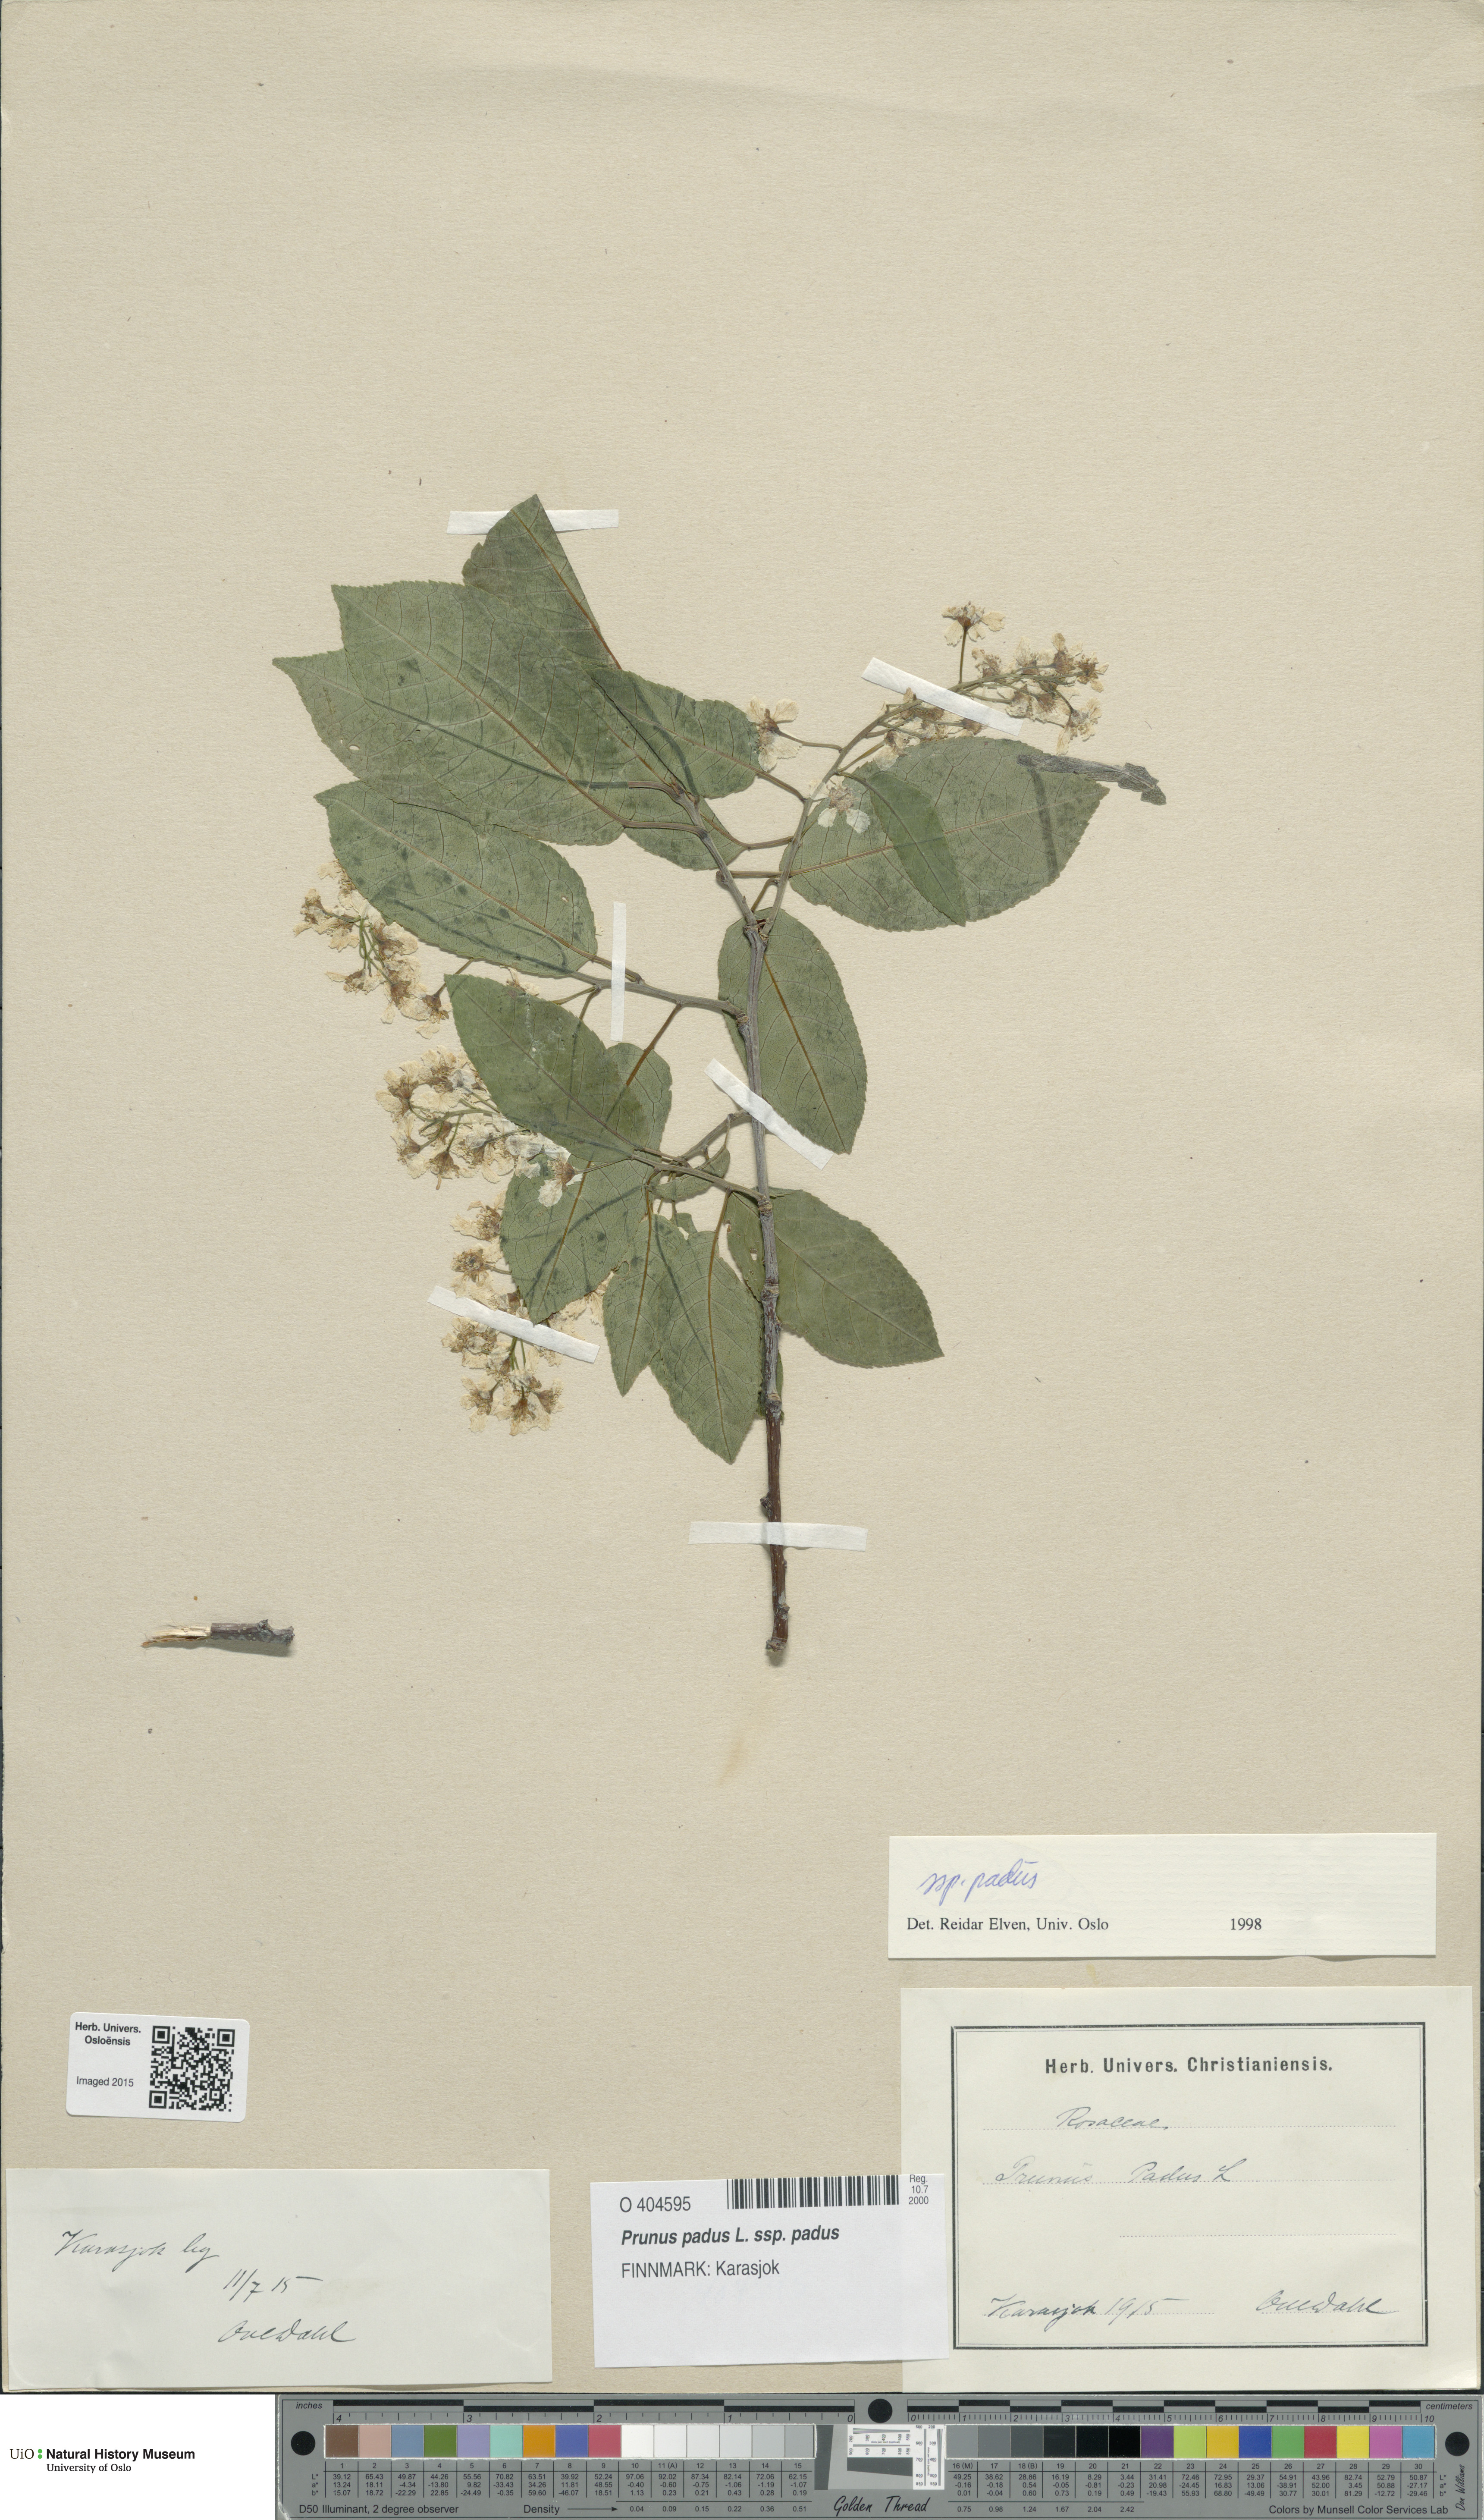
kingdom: Plantae
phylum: Tracheophyta
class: Magnoliopsida
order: Rosales
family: Rosaceae
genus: Prunus
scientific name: Prunus padus
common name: Bird cherry
